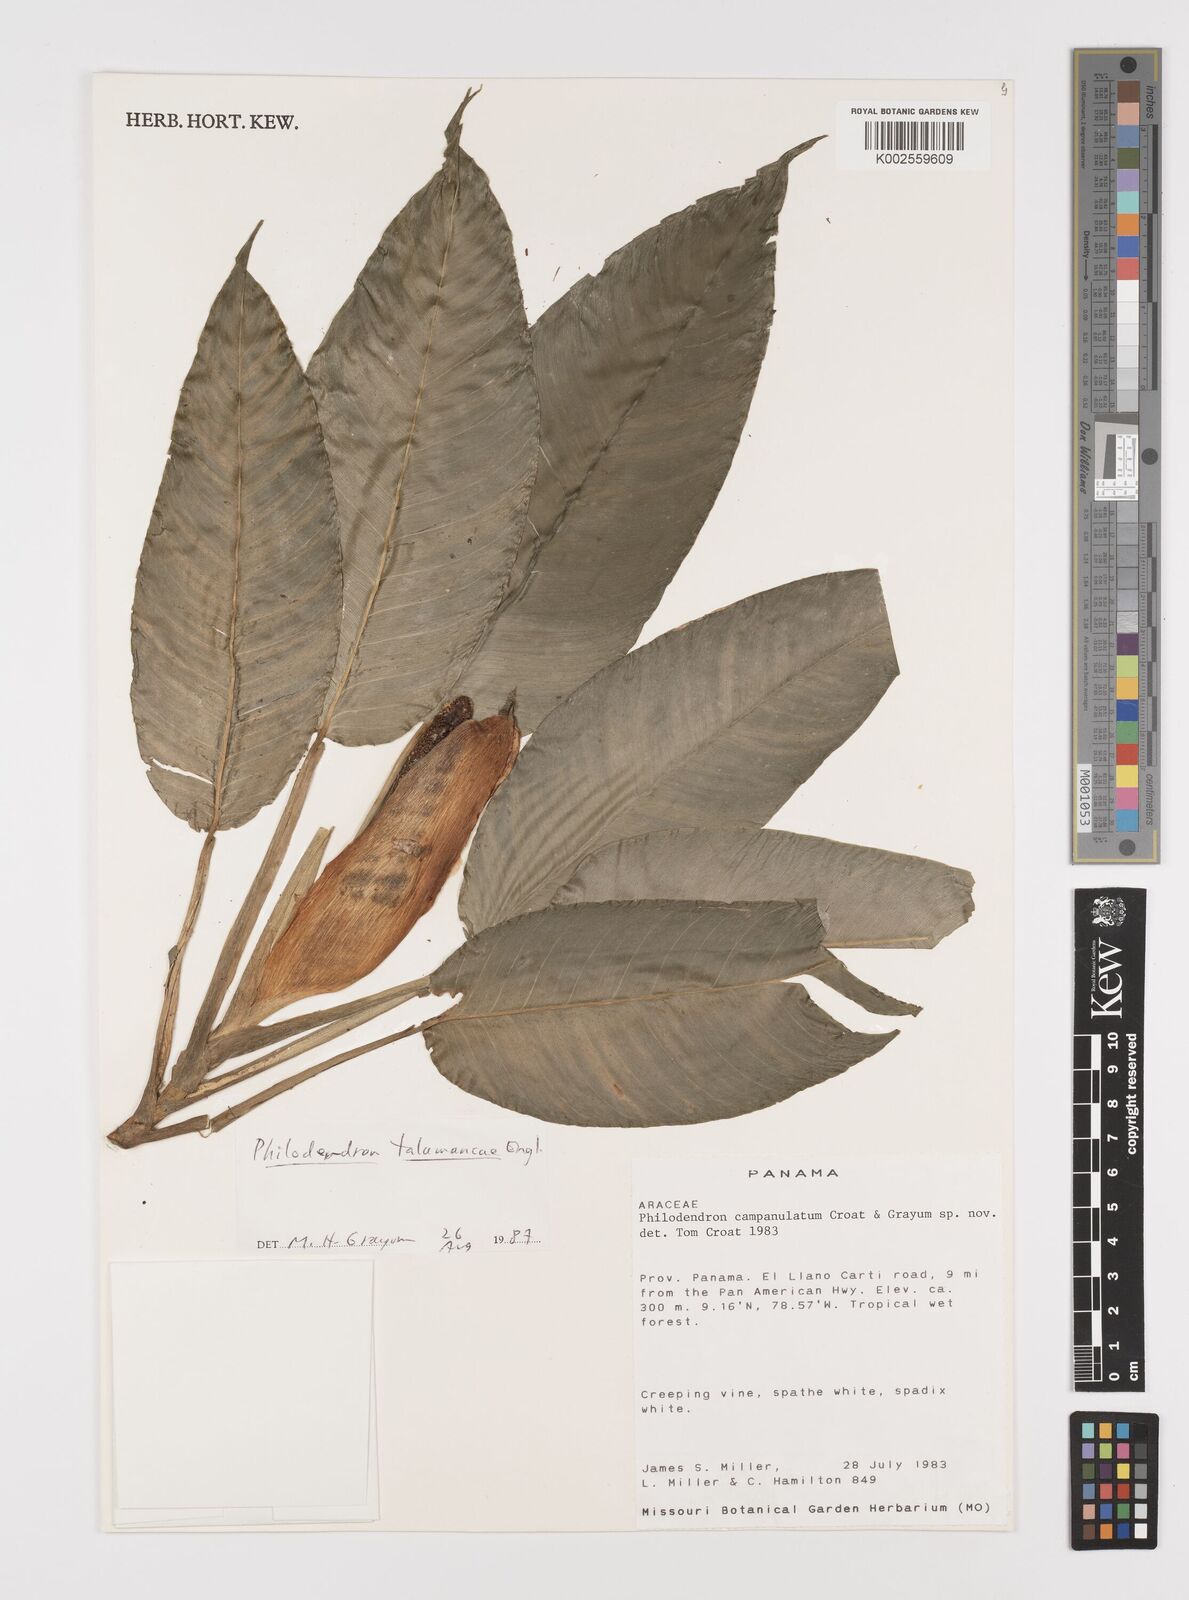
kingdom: Plantae
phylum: Tracheophyta
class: Liliopsida
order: Alismatales
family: Araceae
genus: Philodendron
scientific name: Philodendron schottii
